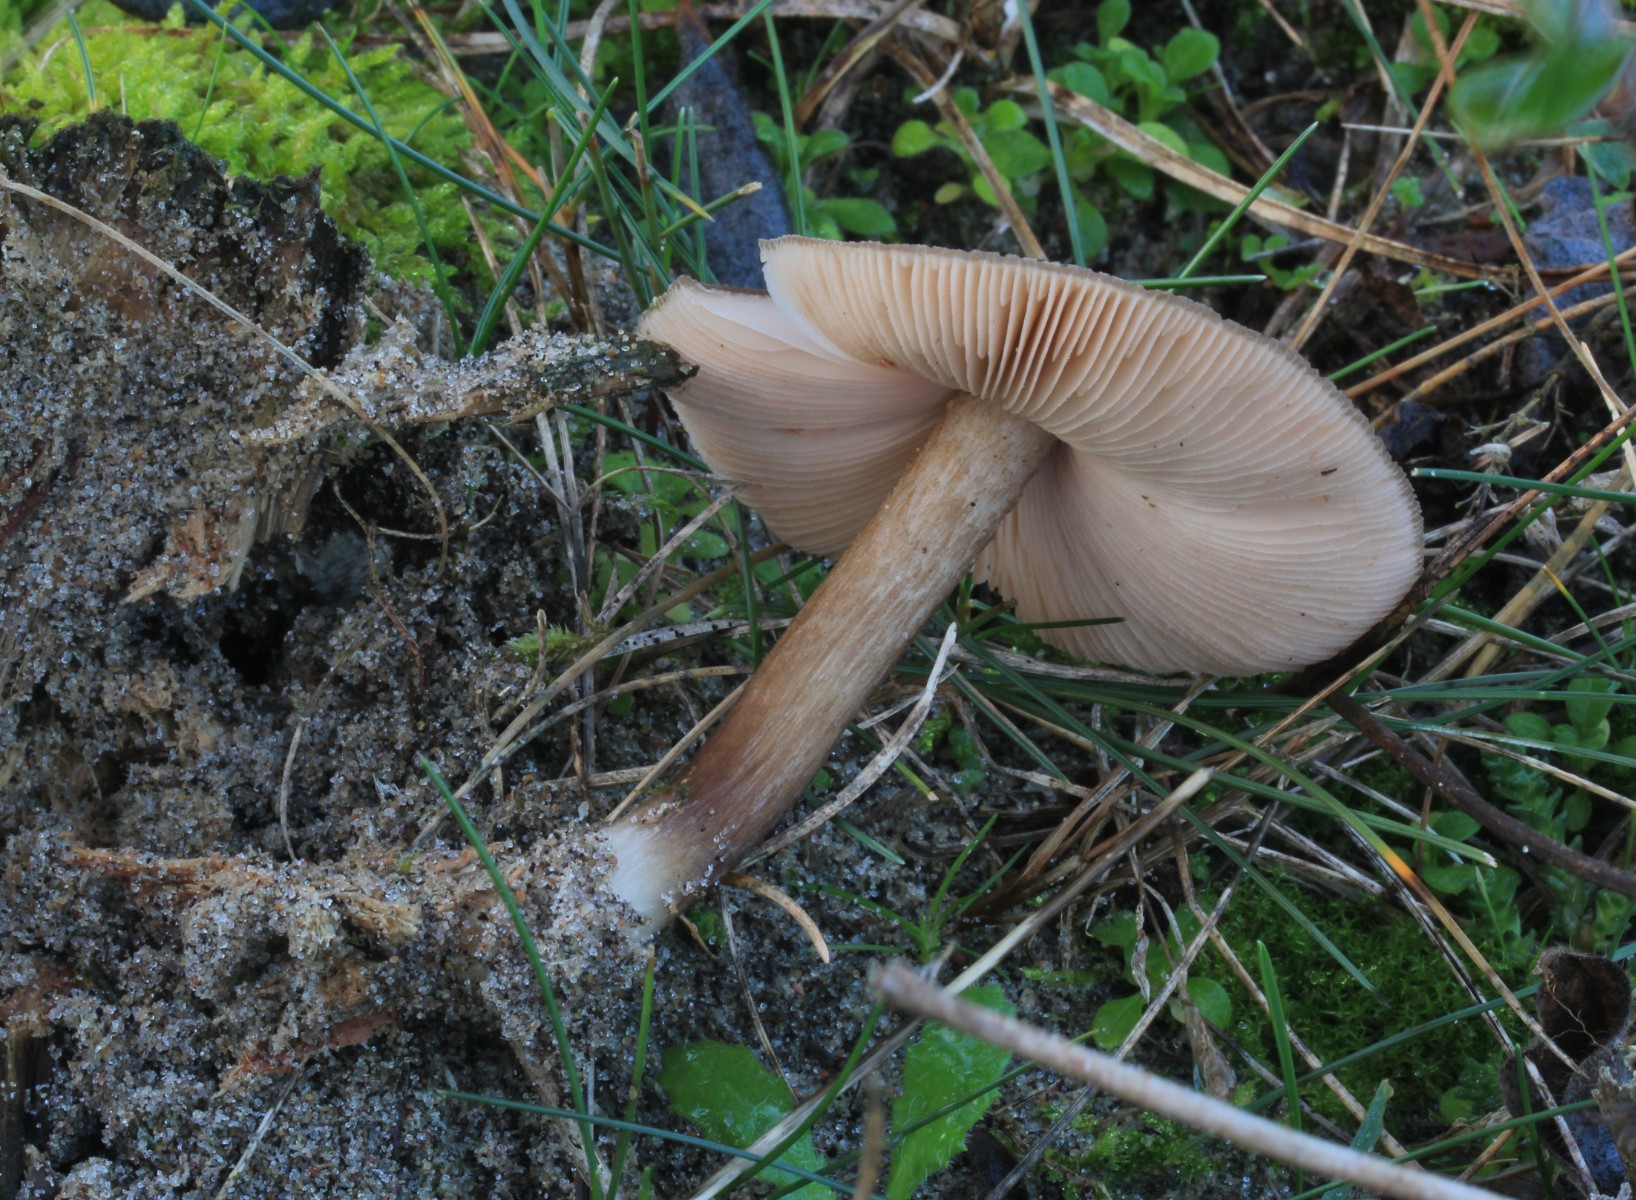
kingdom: Fungi
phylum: Basidiomycota
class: Agaricomycetes
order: Agaricales
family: Pluteaceae
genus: Pluteus
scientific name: Pluteus cervinus
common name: sodfarvet skærmhat
